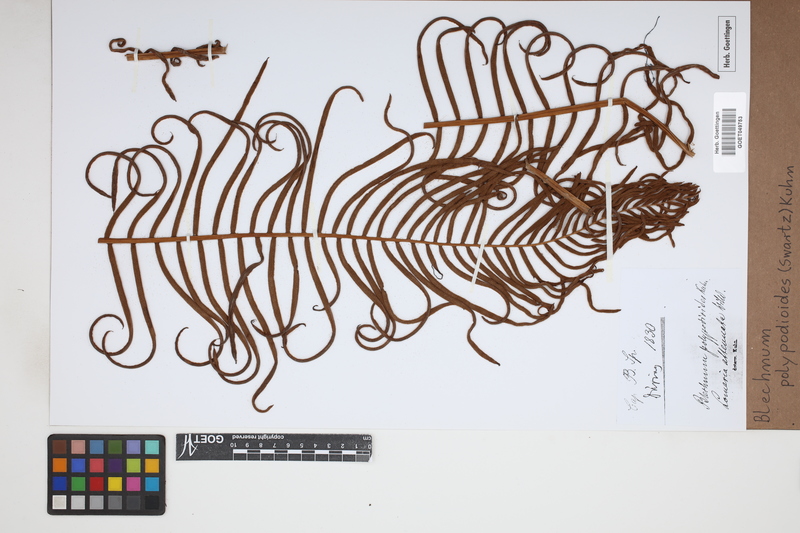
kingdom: Plantae
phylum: Tracheophyta
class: Polypodiopsida
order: Polypodiales
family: Blechnaceae
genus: Lomaridium
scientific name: Lomaridium fragile
